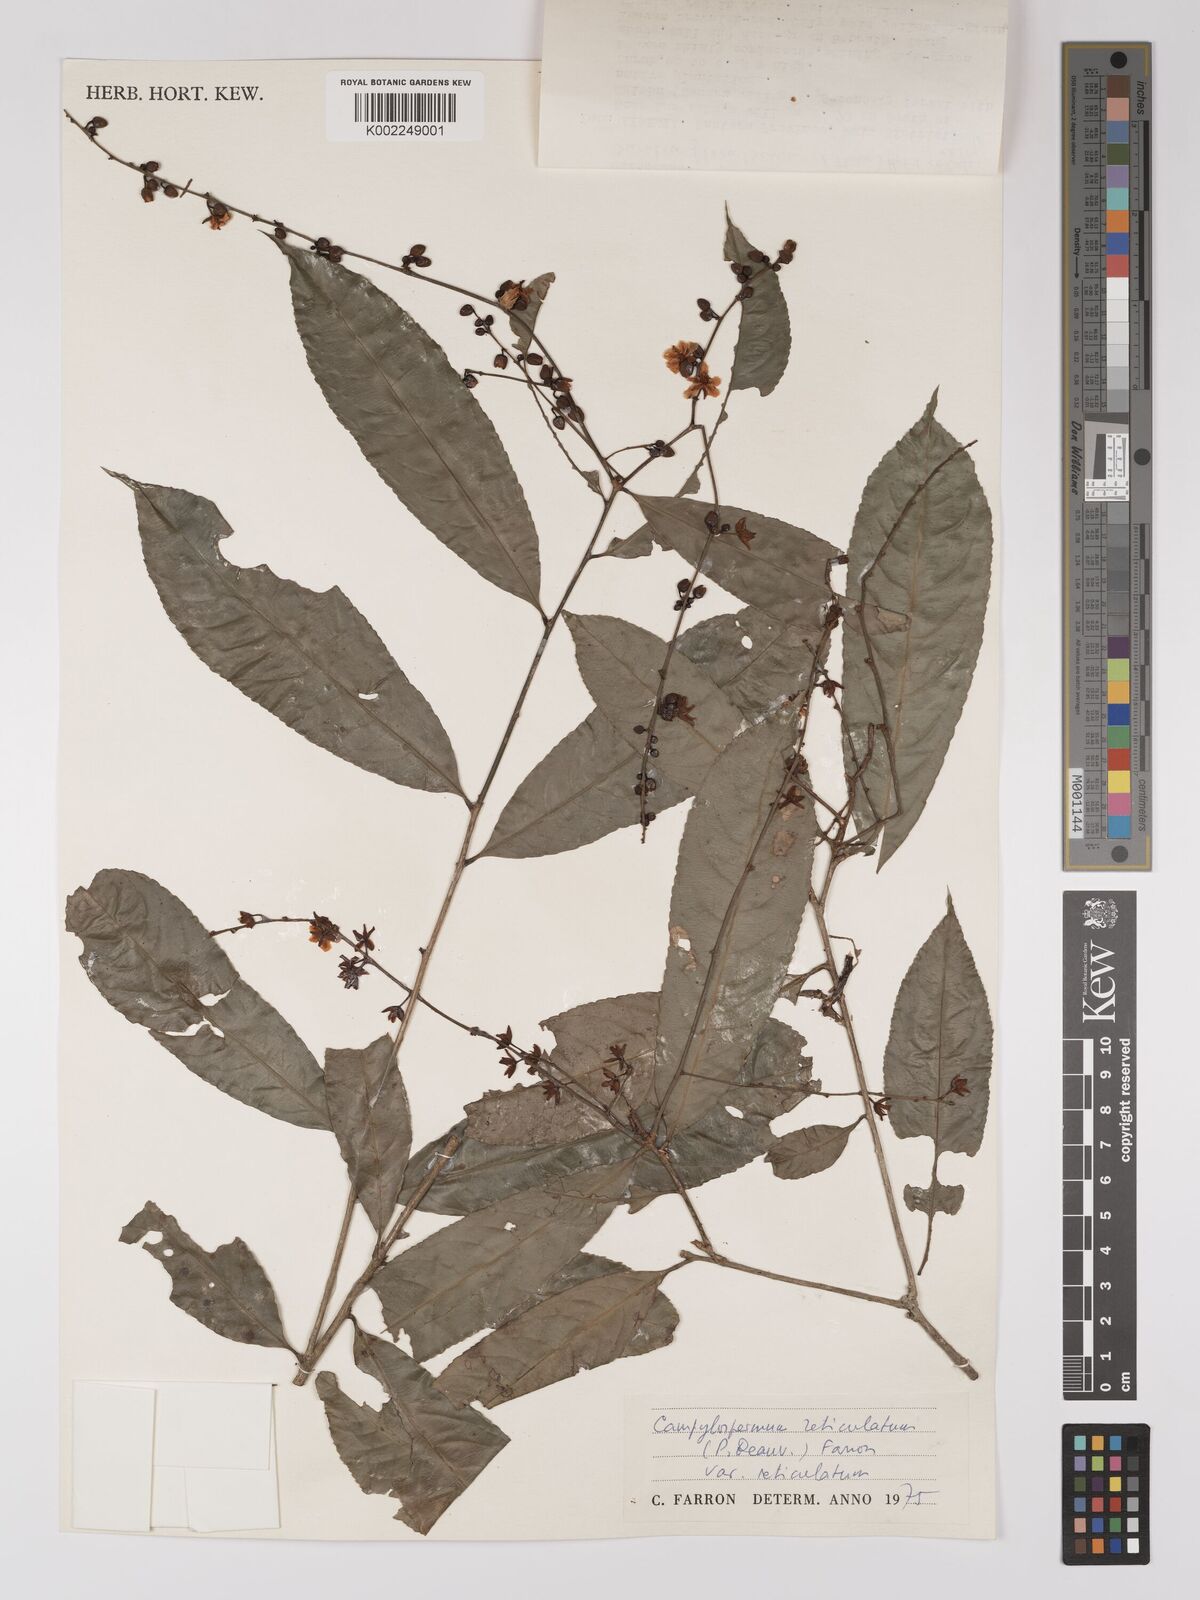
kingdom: Plantae
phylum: Tracheophyta
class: Magnoliopsida
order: Malpighiales
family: Ochnaceae
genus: Campylospermum
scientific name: Campylospermum reticulatum
